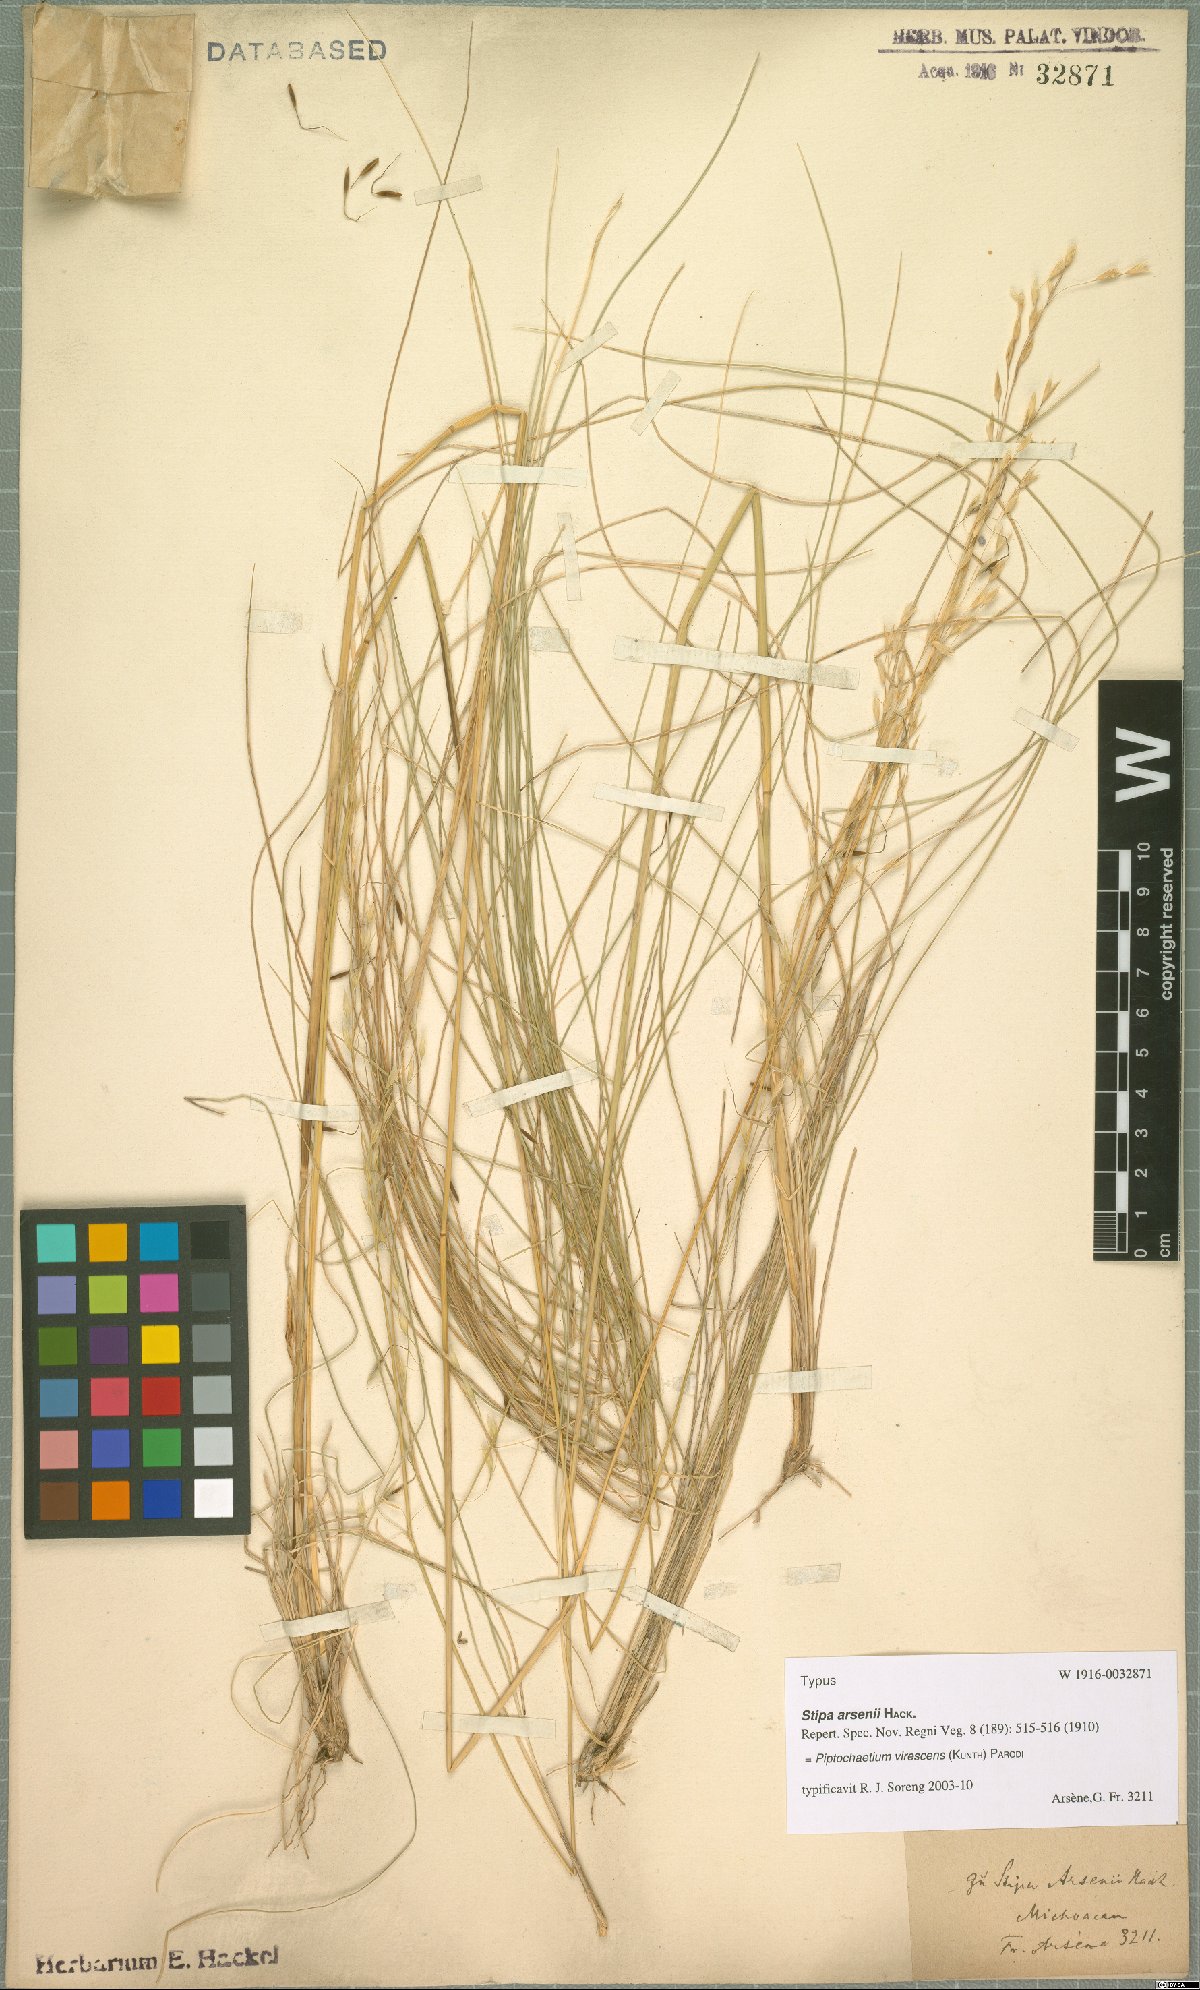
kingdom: Plantae
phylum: Tracheophyta
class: Liliopsida
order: Poales
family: Poaceae
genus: Piptochaetium
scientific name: Piptochaetium virescens
